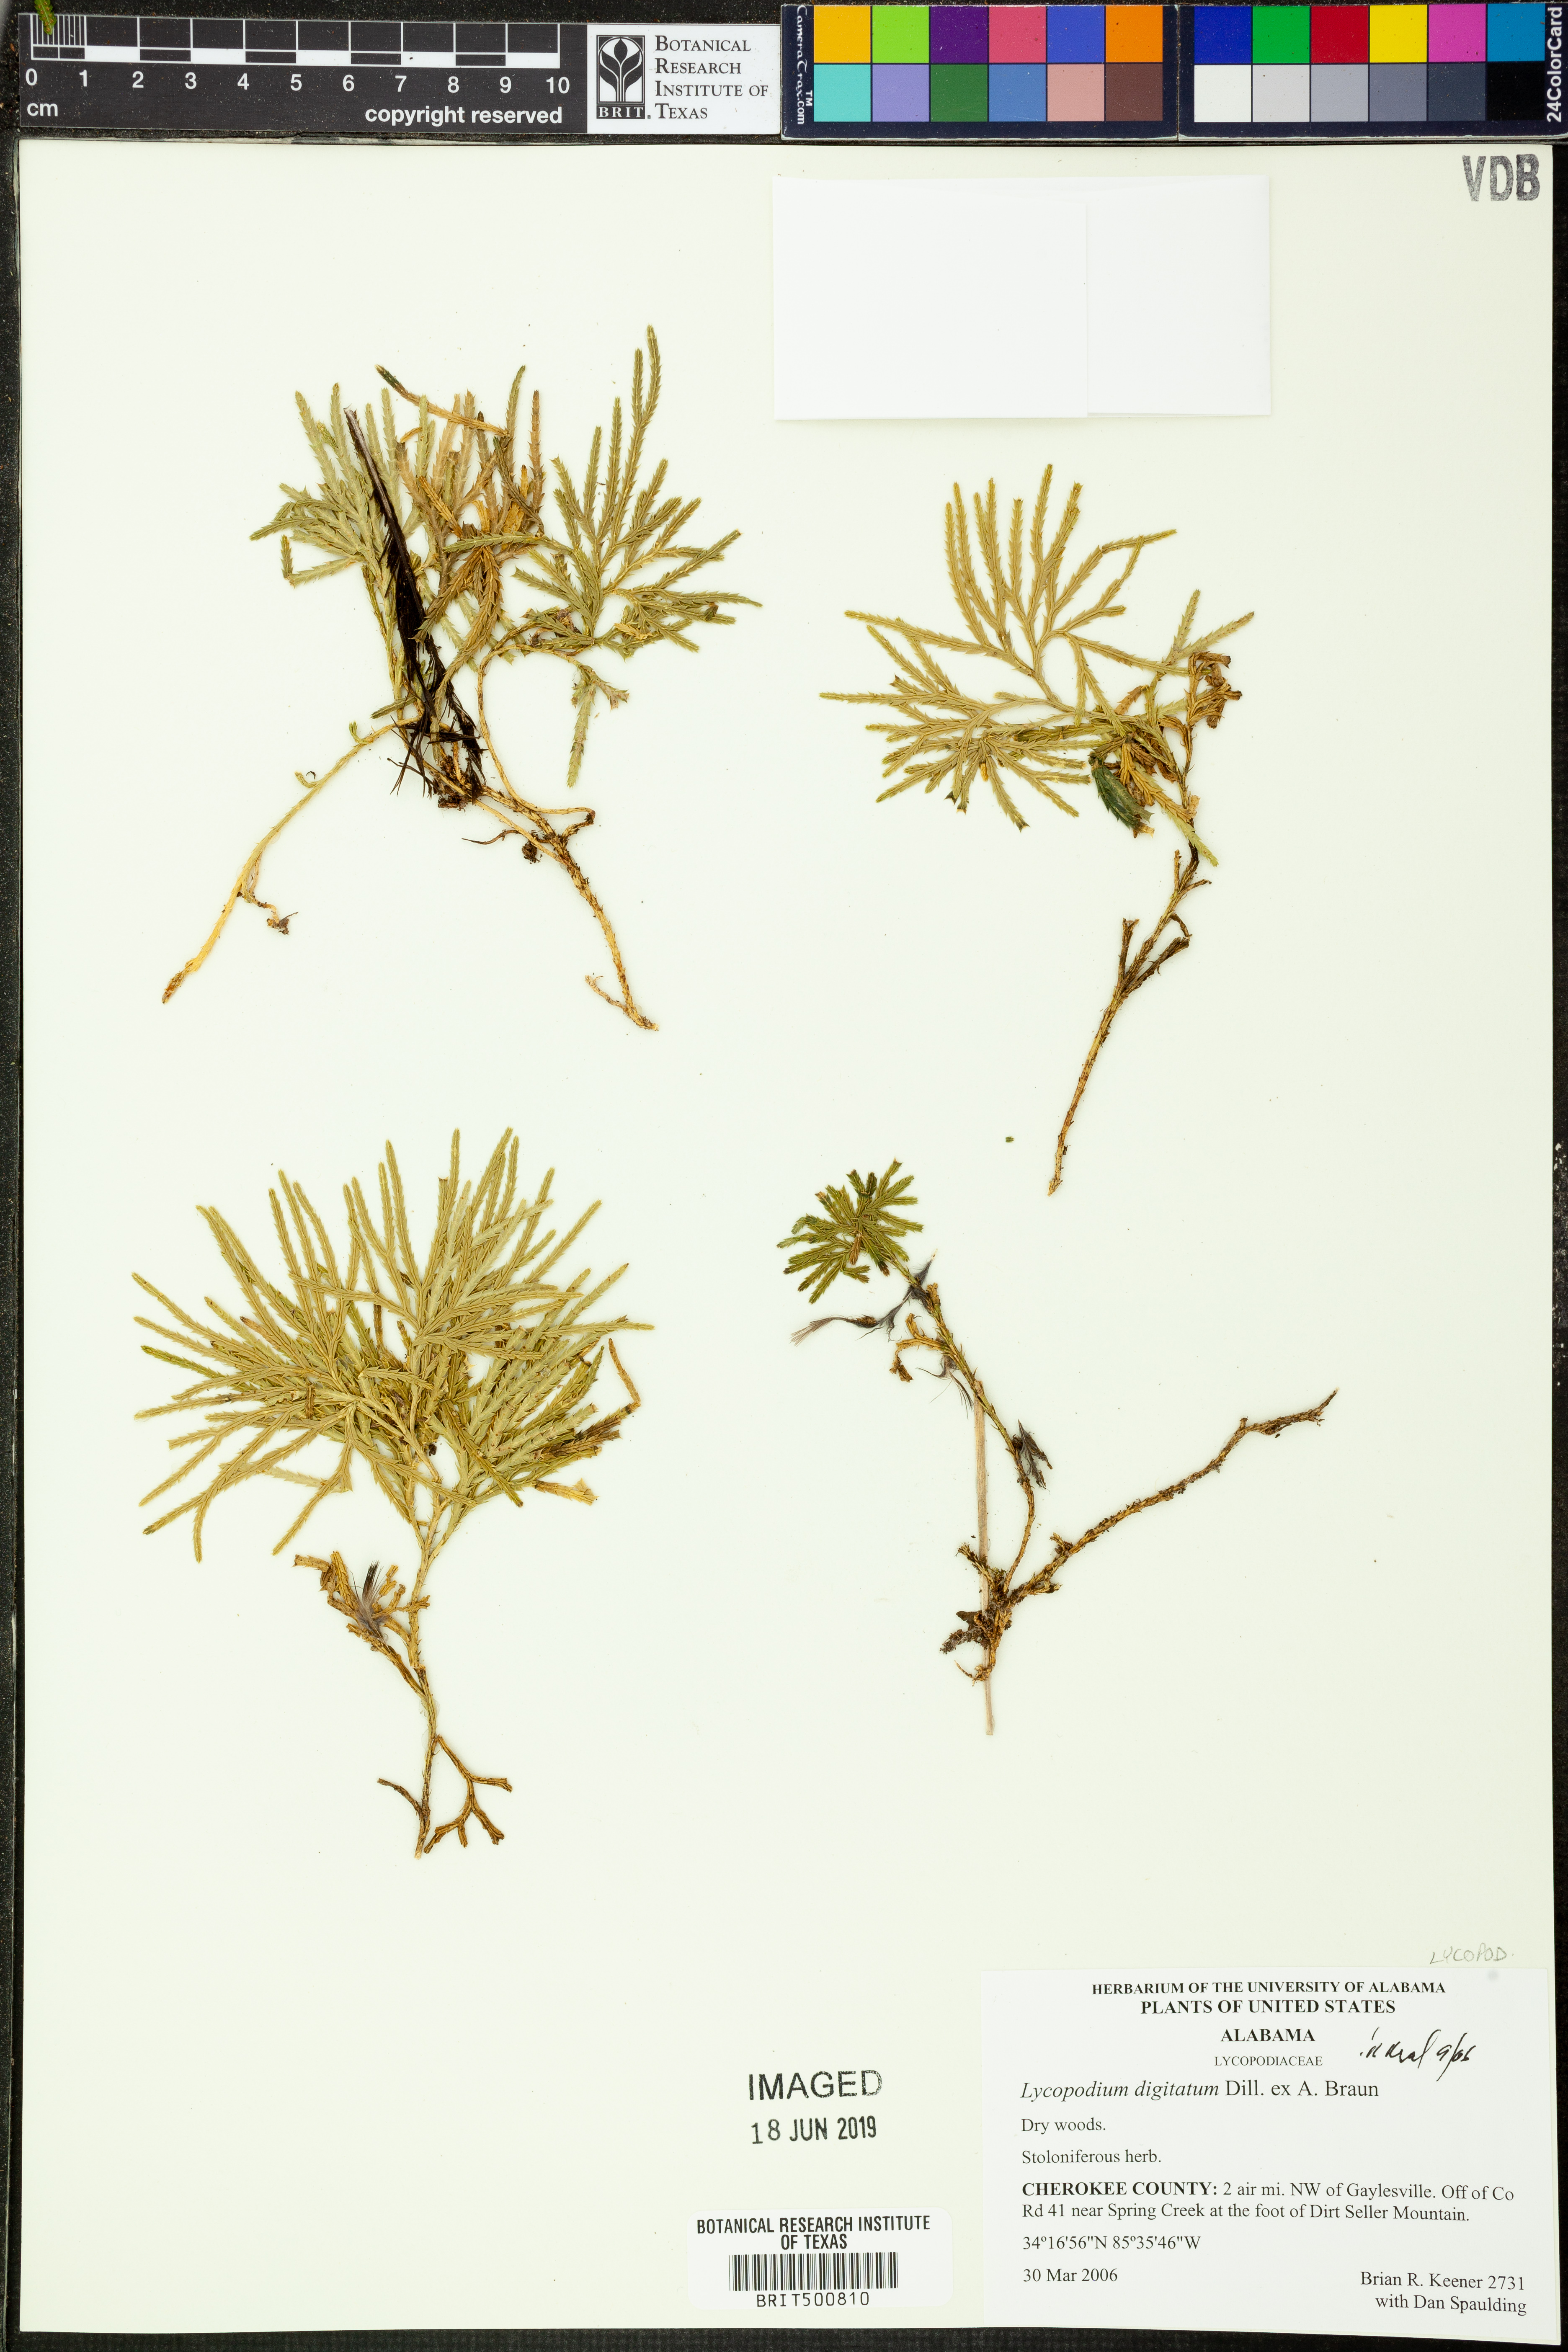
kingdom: Plantae
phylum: Tracheophyta
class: Lycopodiopsida
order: Lycopodiales
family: Lycopodiaceae
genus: Diphasiastrum
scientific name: Diphasiastrum digitatum
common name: Southern running-pine
